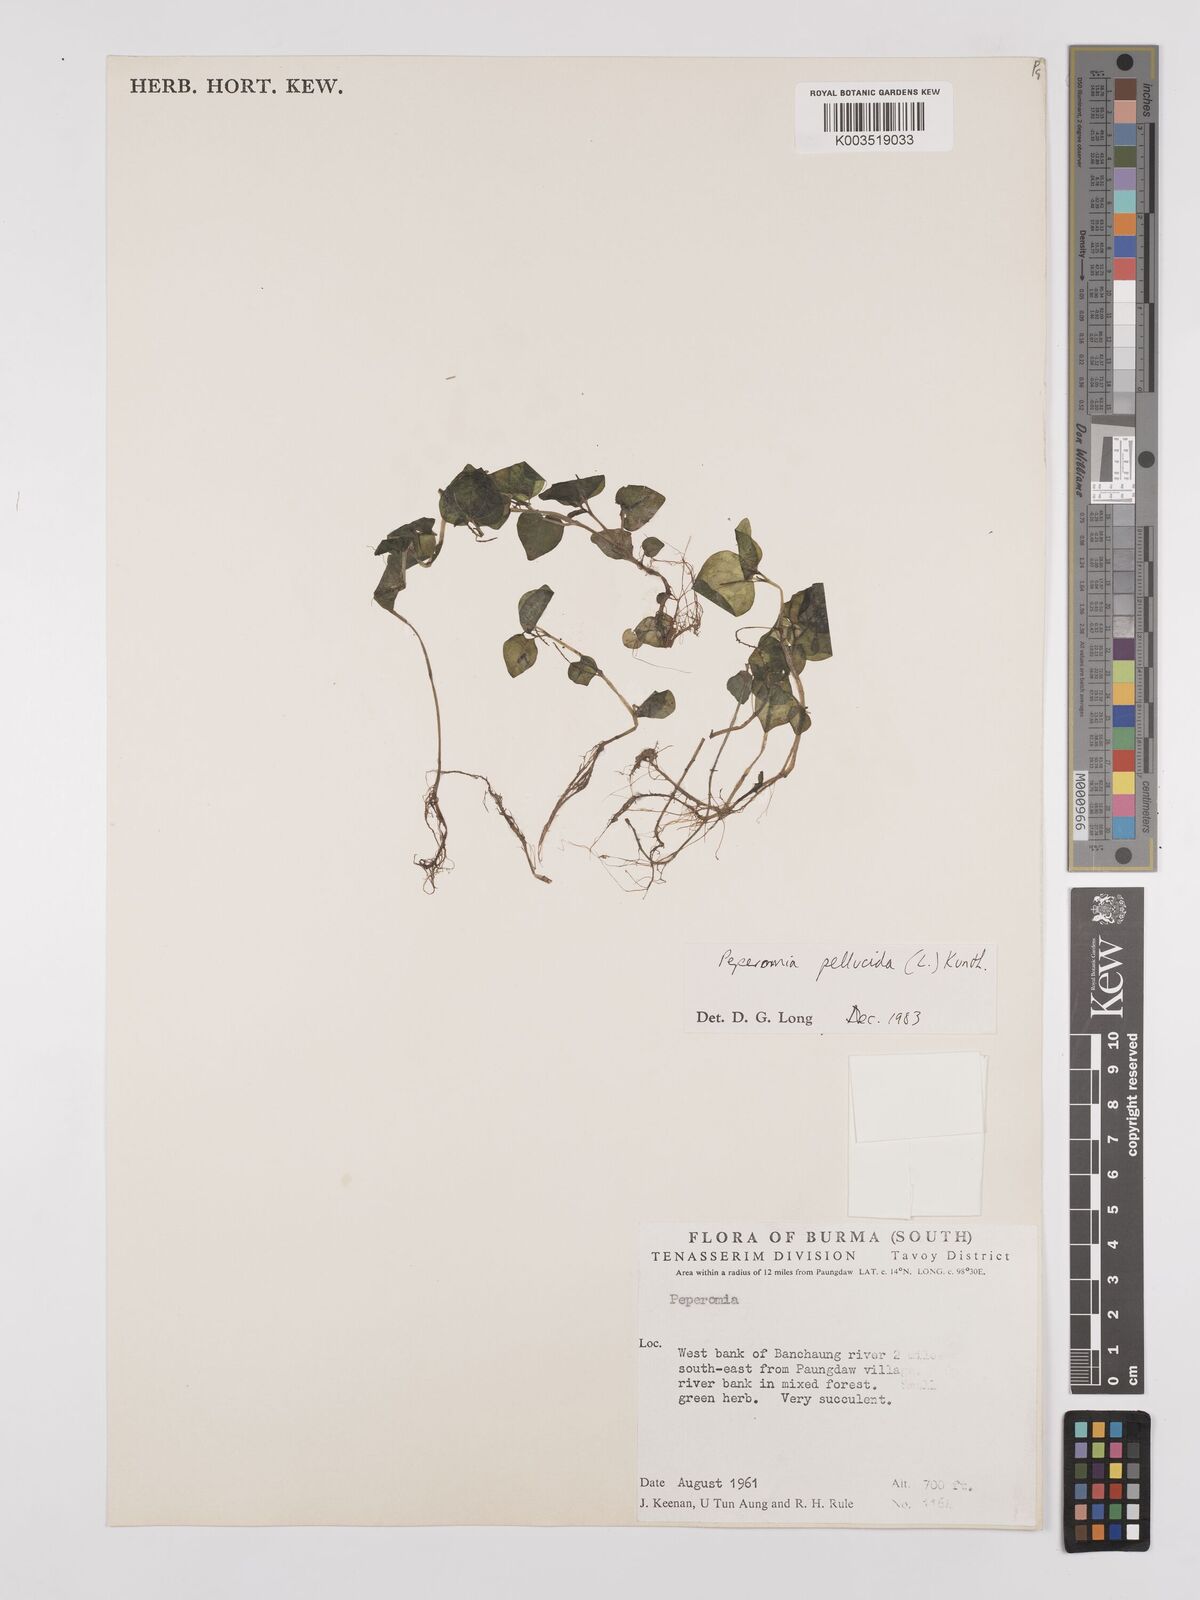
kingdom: Plantae
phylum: Tracheophyta
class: Magnoliopsida
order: Piperales
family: Piperaceae
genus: Peperomia
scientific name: Peperomia pellucida
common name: Man to man
